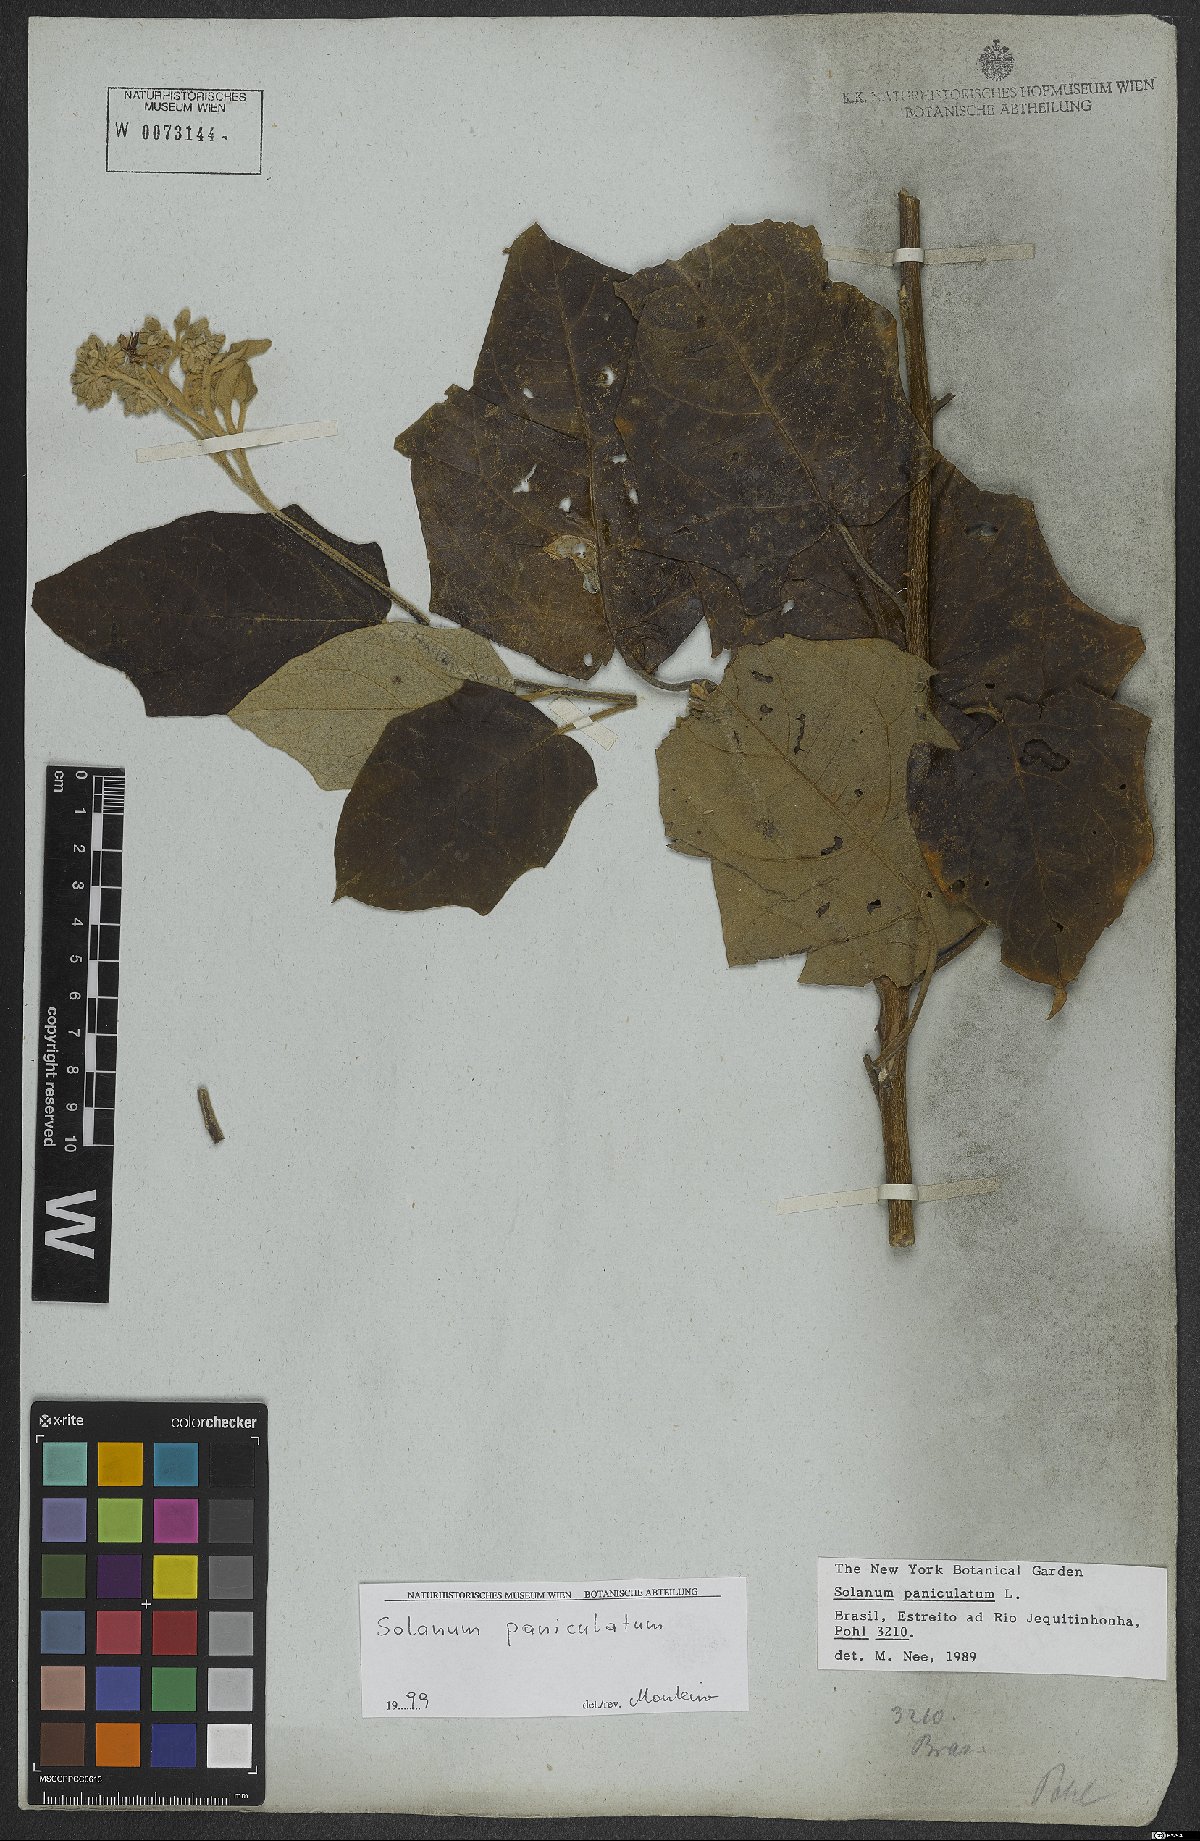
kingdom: Plantae
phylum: Tracheophyta
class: Magnoliopsida
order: Solanales
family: Solanaceae
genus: Solanum
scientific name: Solanum paniculatum
